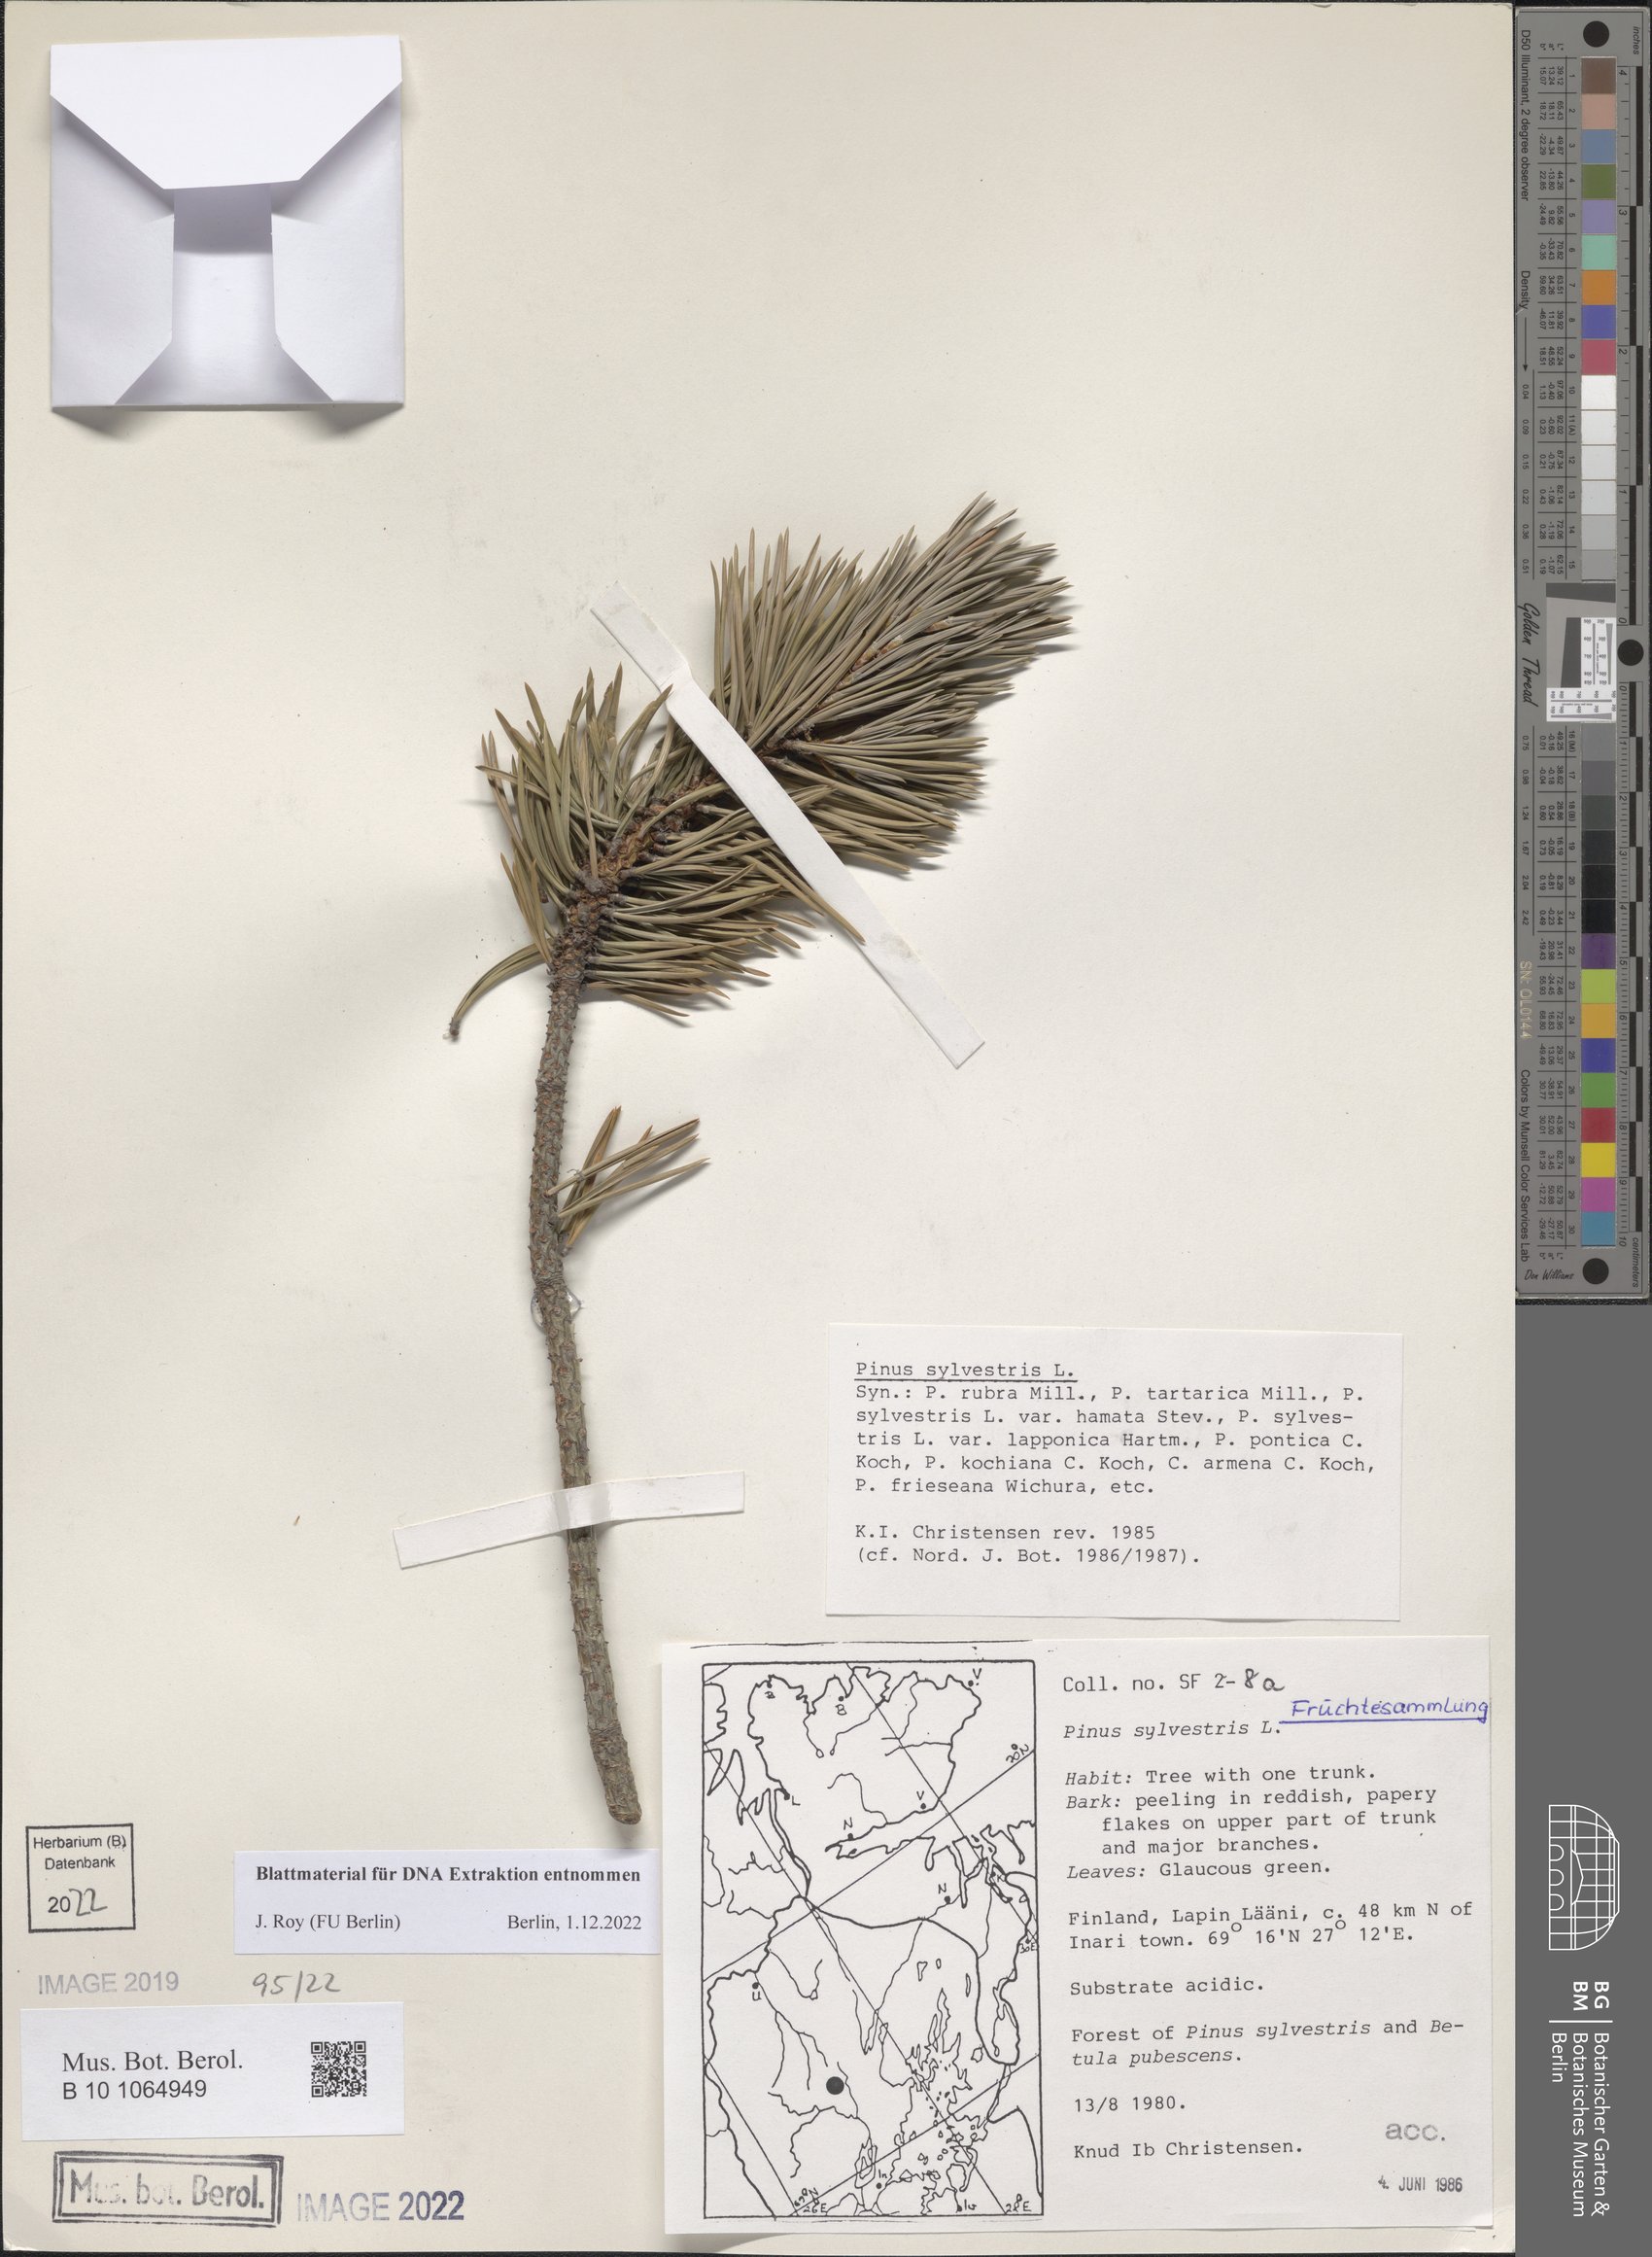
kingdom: Plantae
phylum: Tracheophyta
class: Pinopsida
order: Pinales
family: Pinaceae
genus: Pinus
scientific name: Pinus sylvestris
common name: Scots pine
